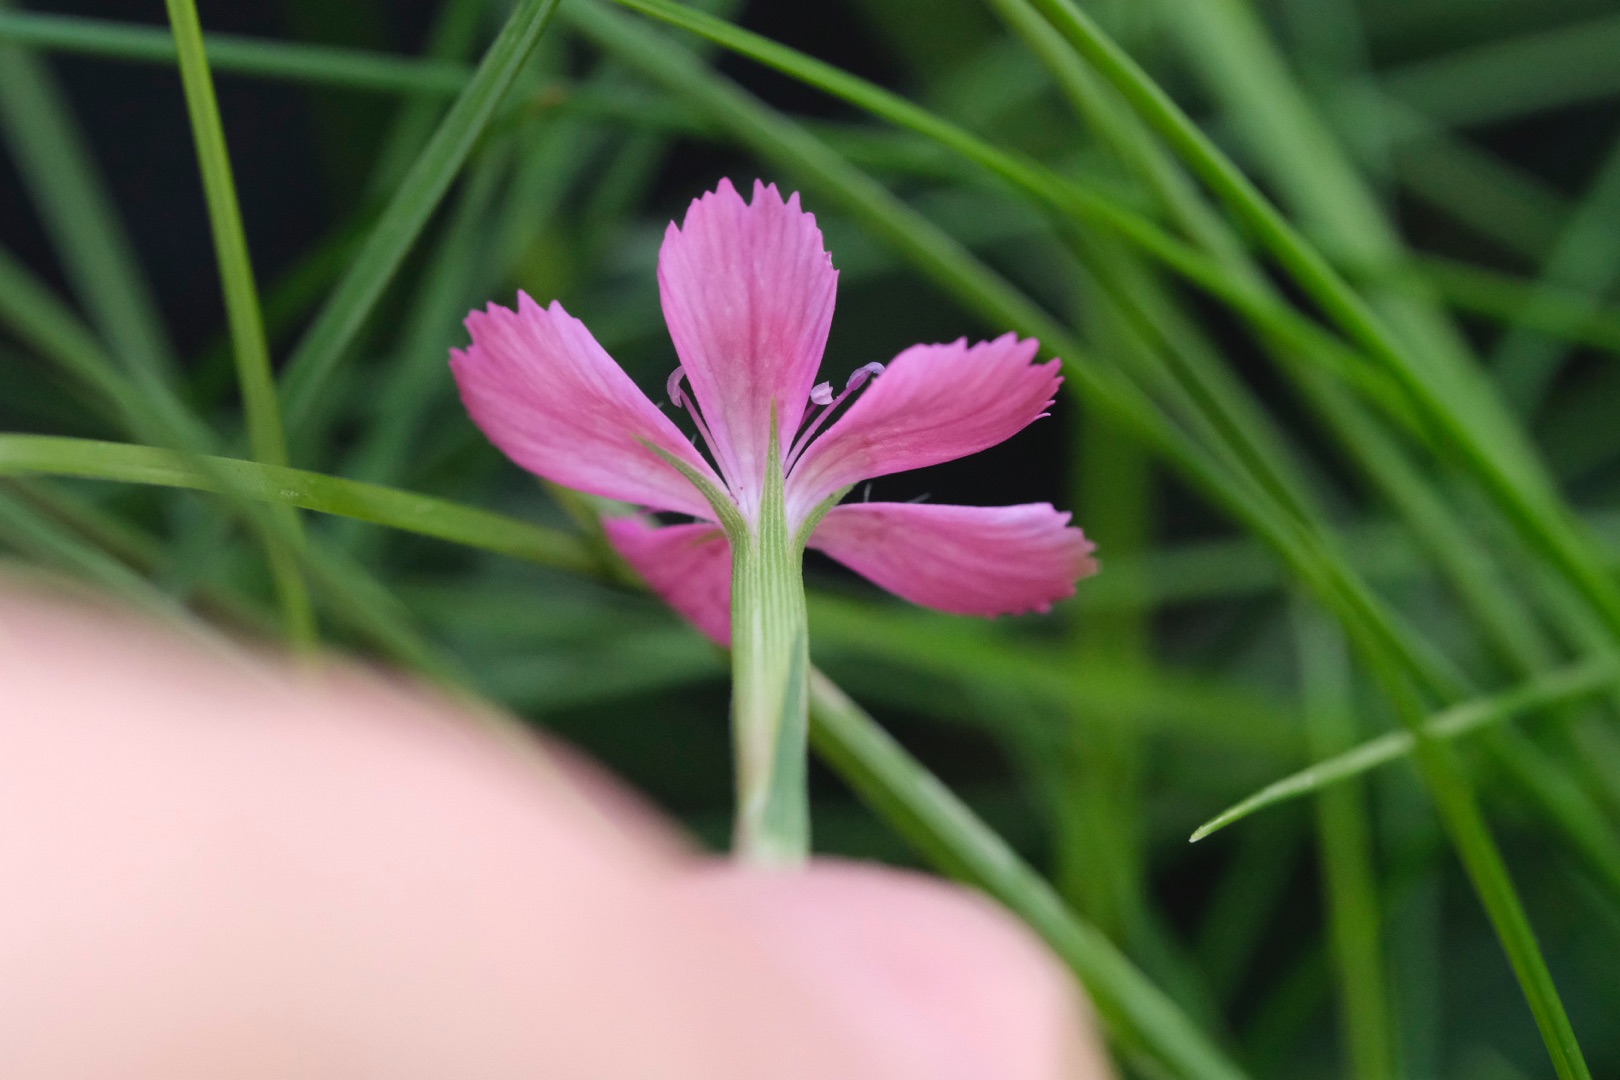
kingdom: Plantae
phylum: Tracheophyta
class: Magnoliopsida
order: Caryophyllales
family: Caryophyllaceae
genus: Dianthus
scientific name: Dianthus deltoides
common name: Bakke-nellike
